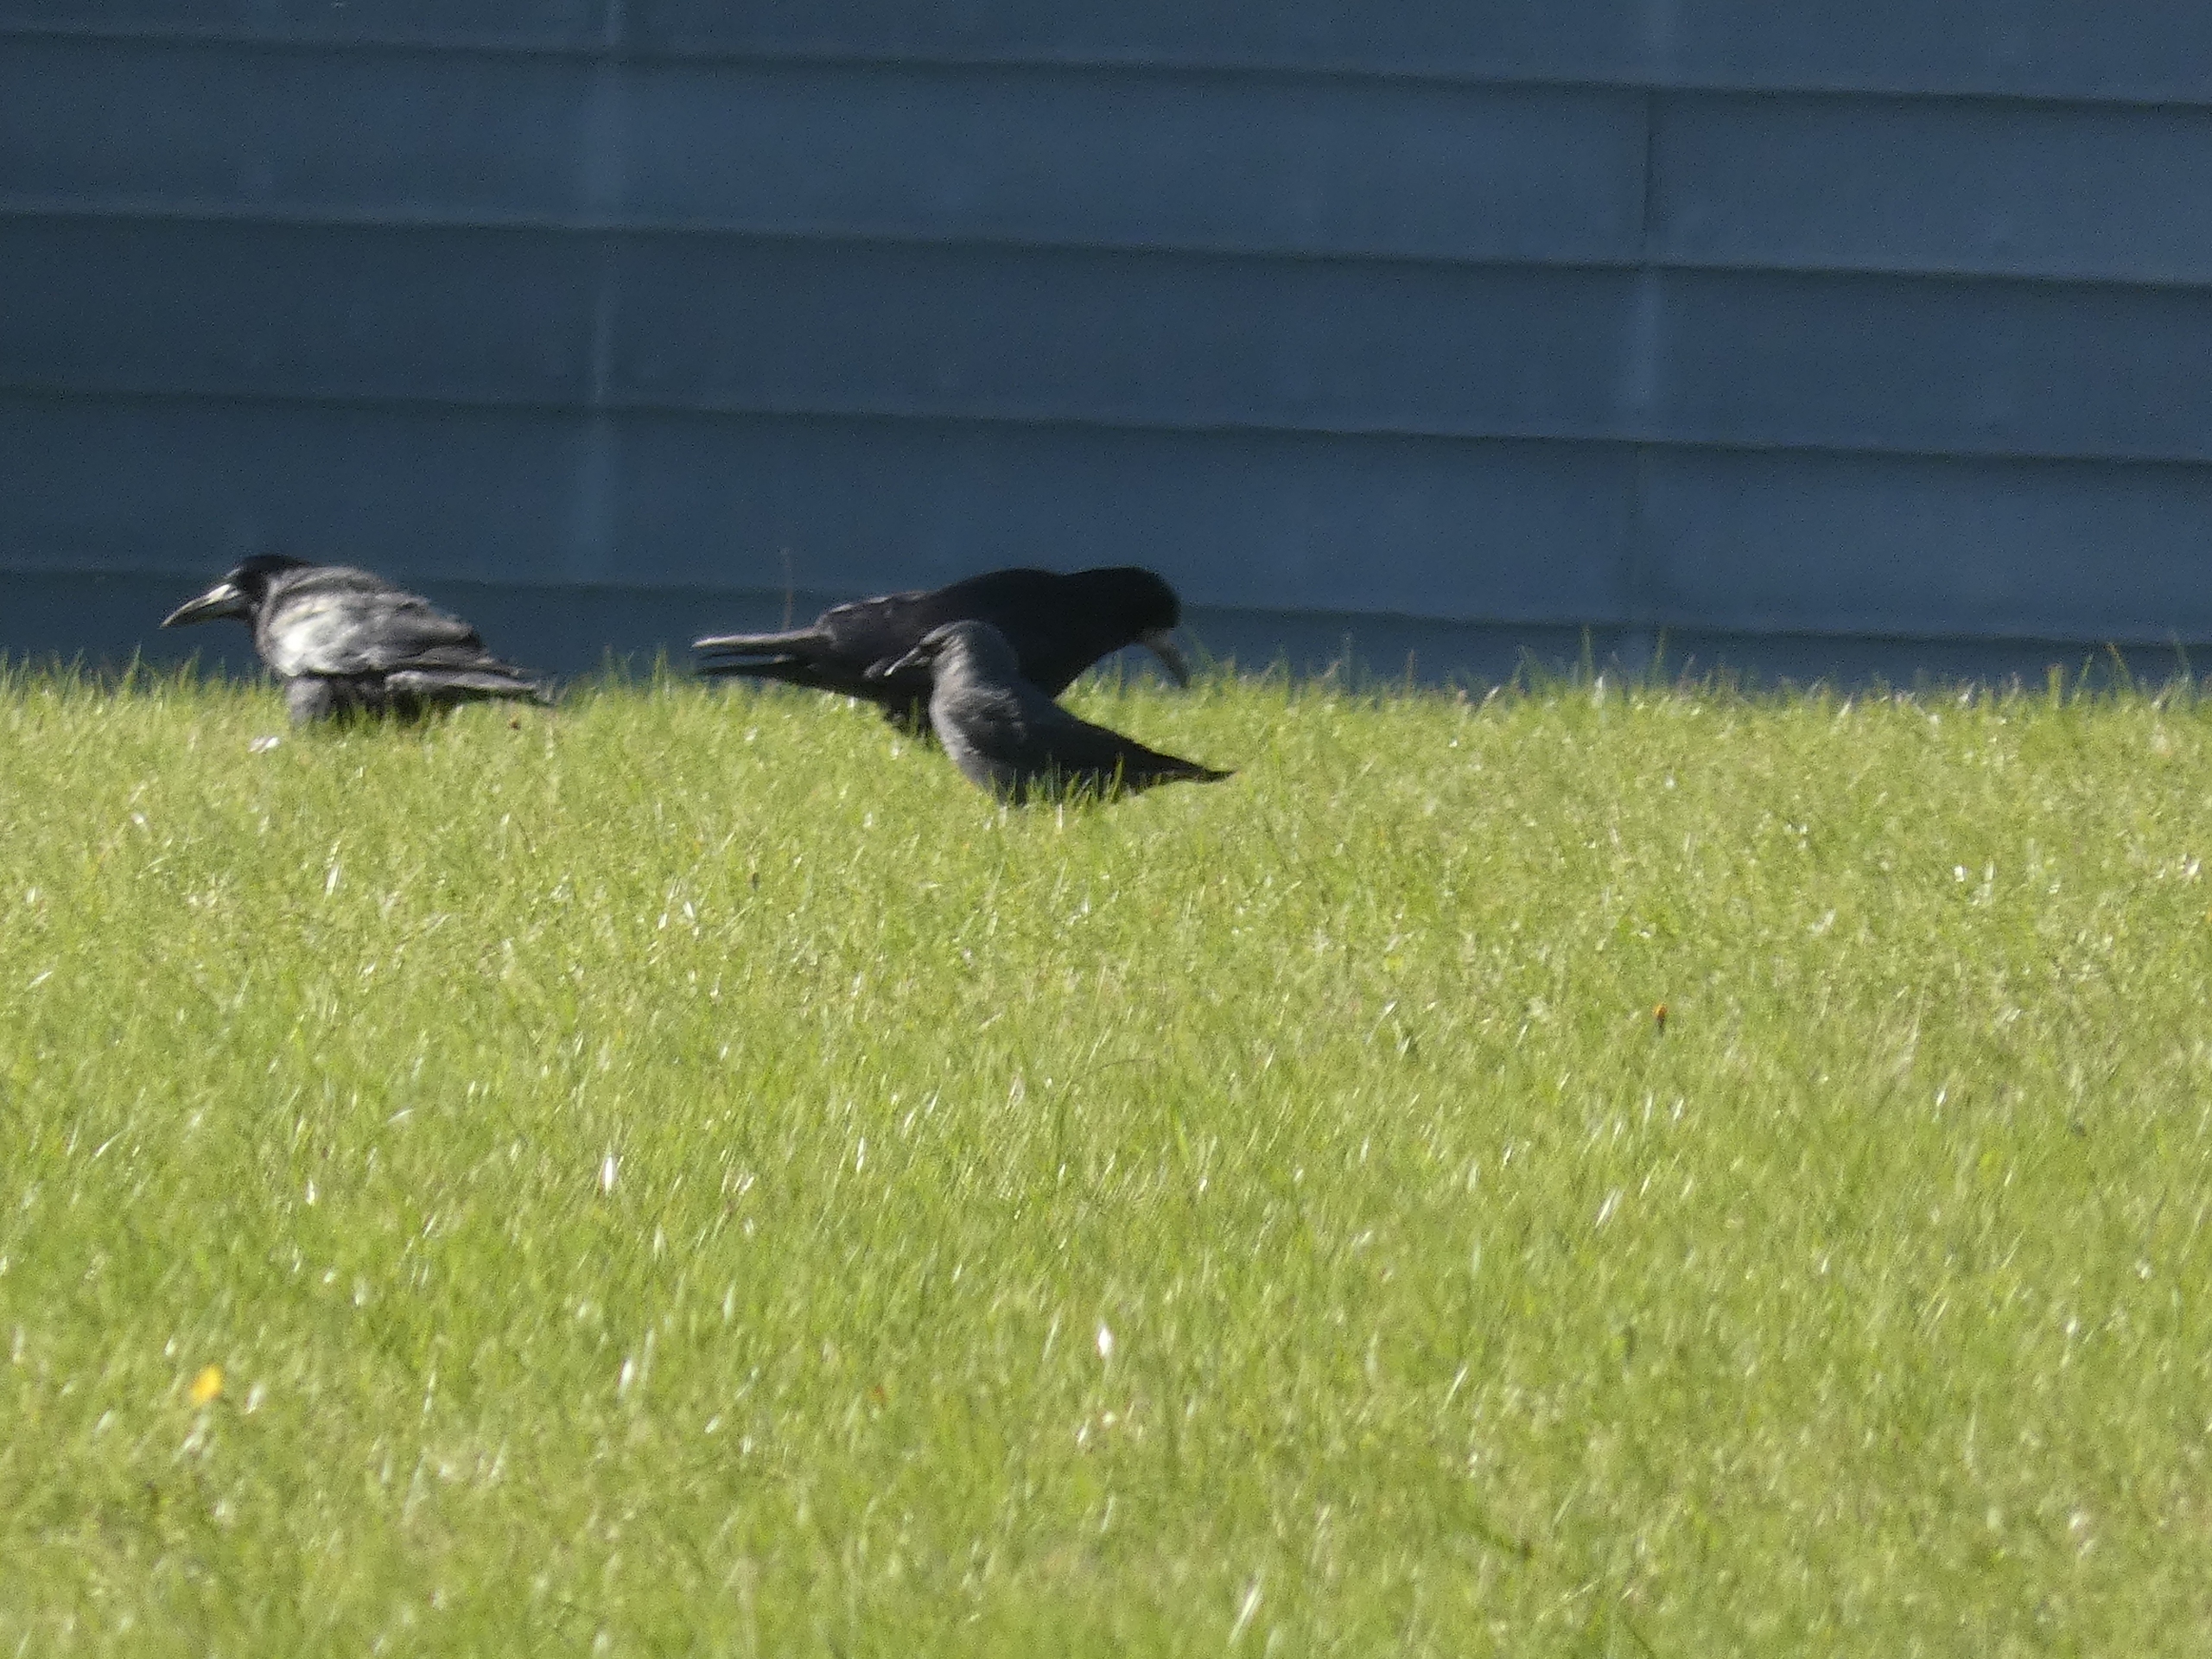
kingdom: Animalia
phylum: Chordata
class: Aves
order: Passeriformes
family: Corvidae
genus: Coloeus
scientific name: Coloeus monedula
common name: Allike
